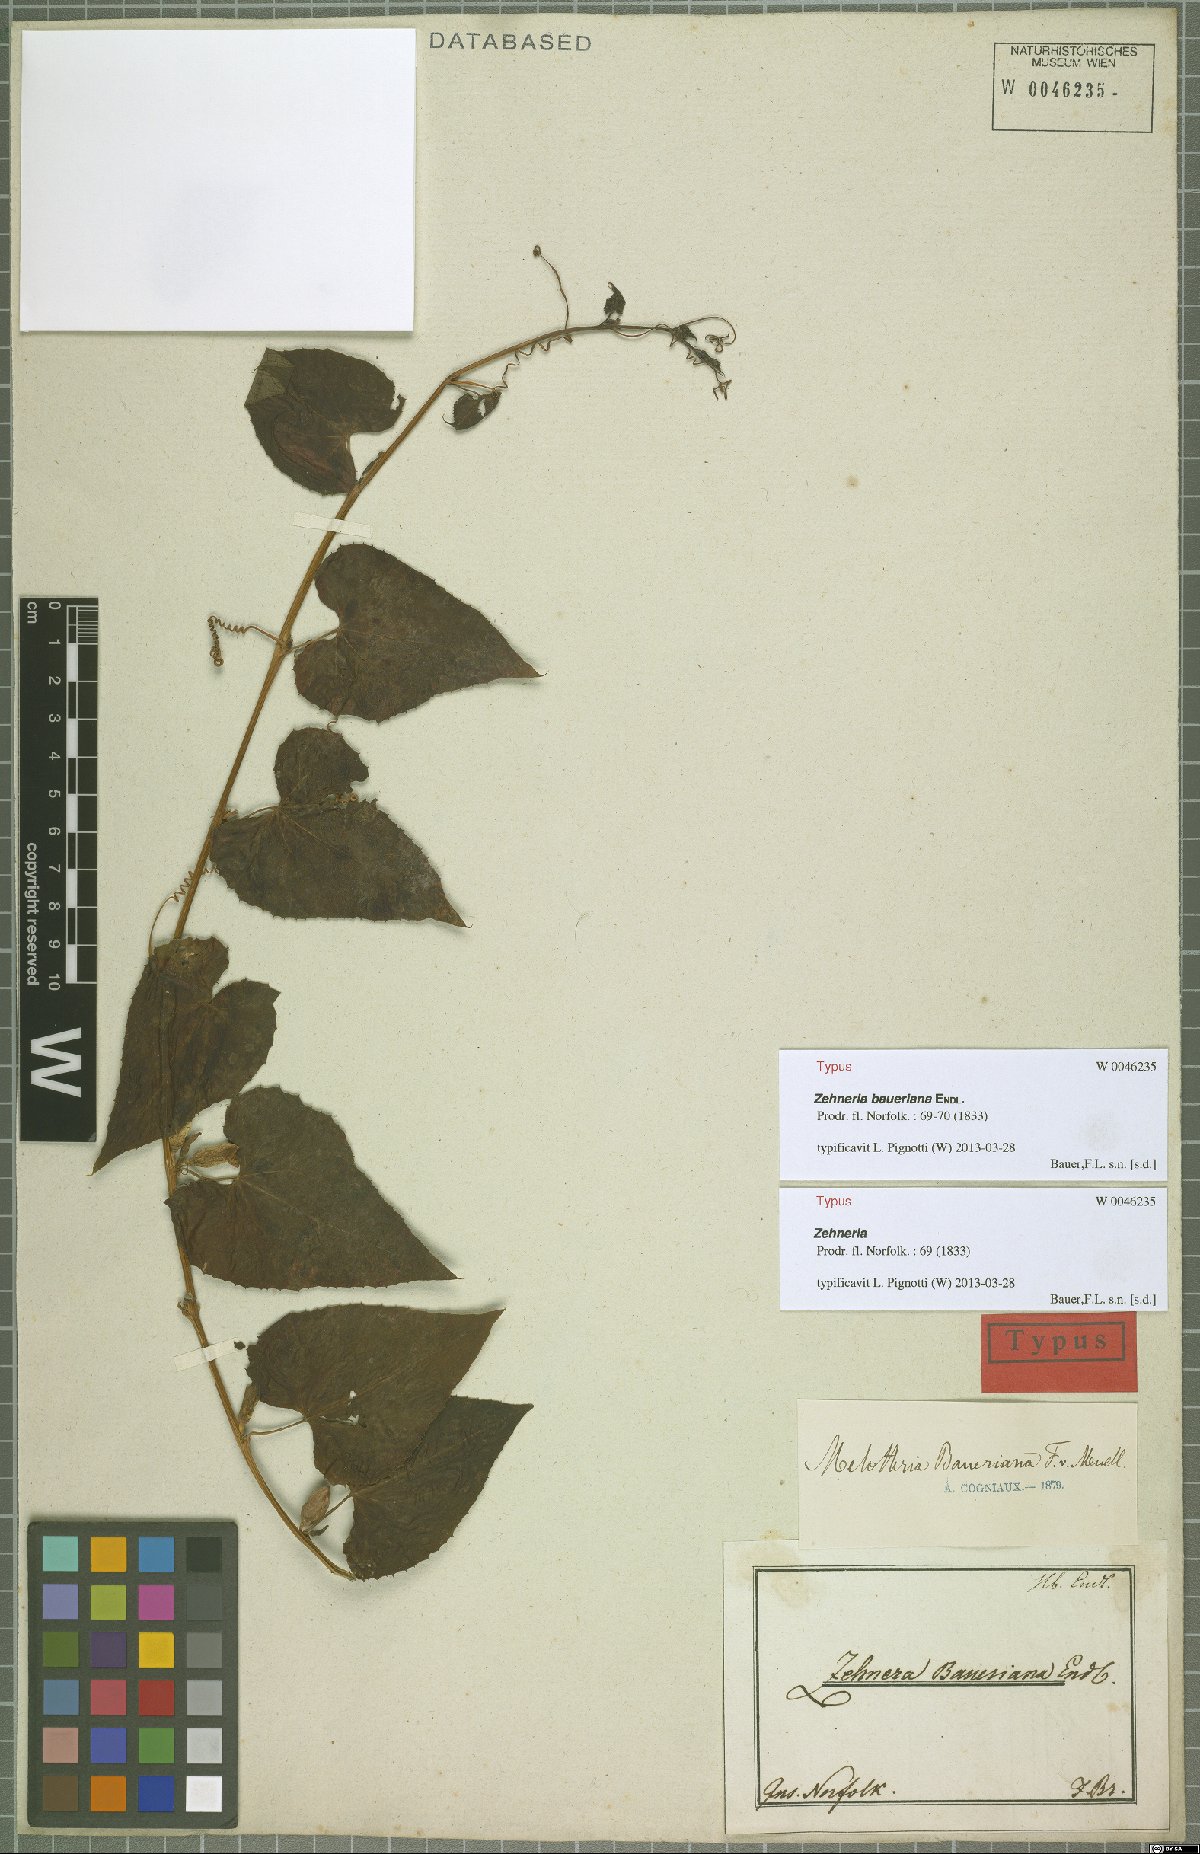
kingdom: Plantae
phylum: Tracheophyta
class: Magnoliopsida
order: Cucurbitales
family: Cucurbitaceae
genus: Zehneria
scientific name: Zehneria mucronata
